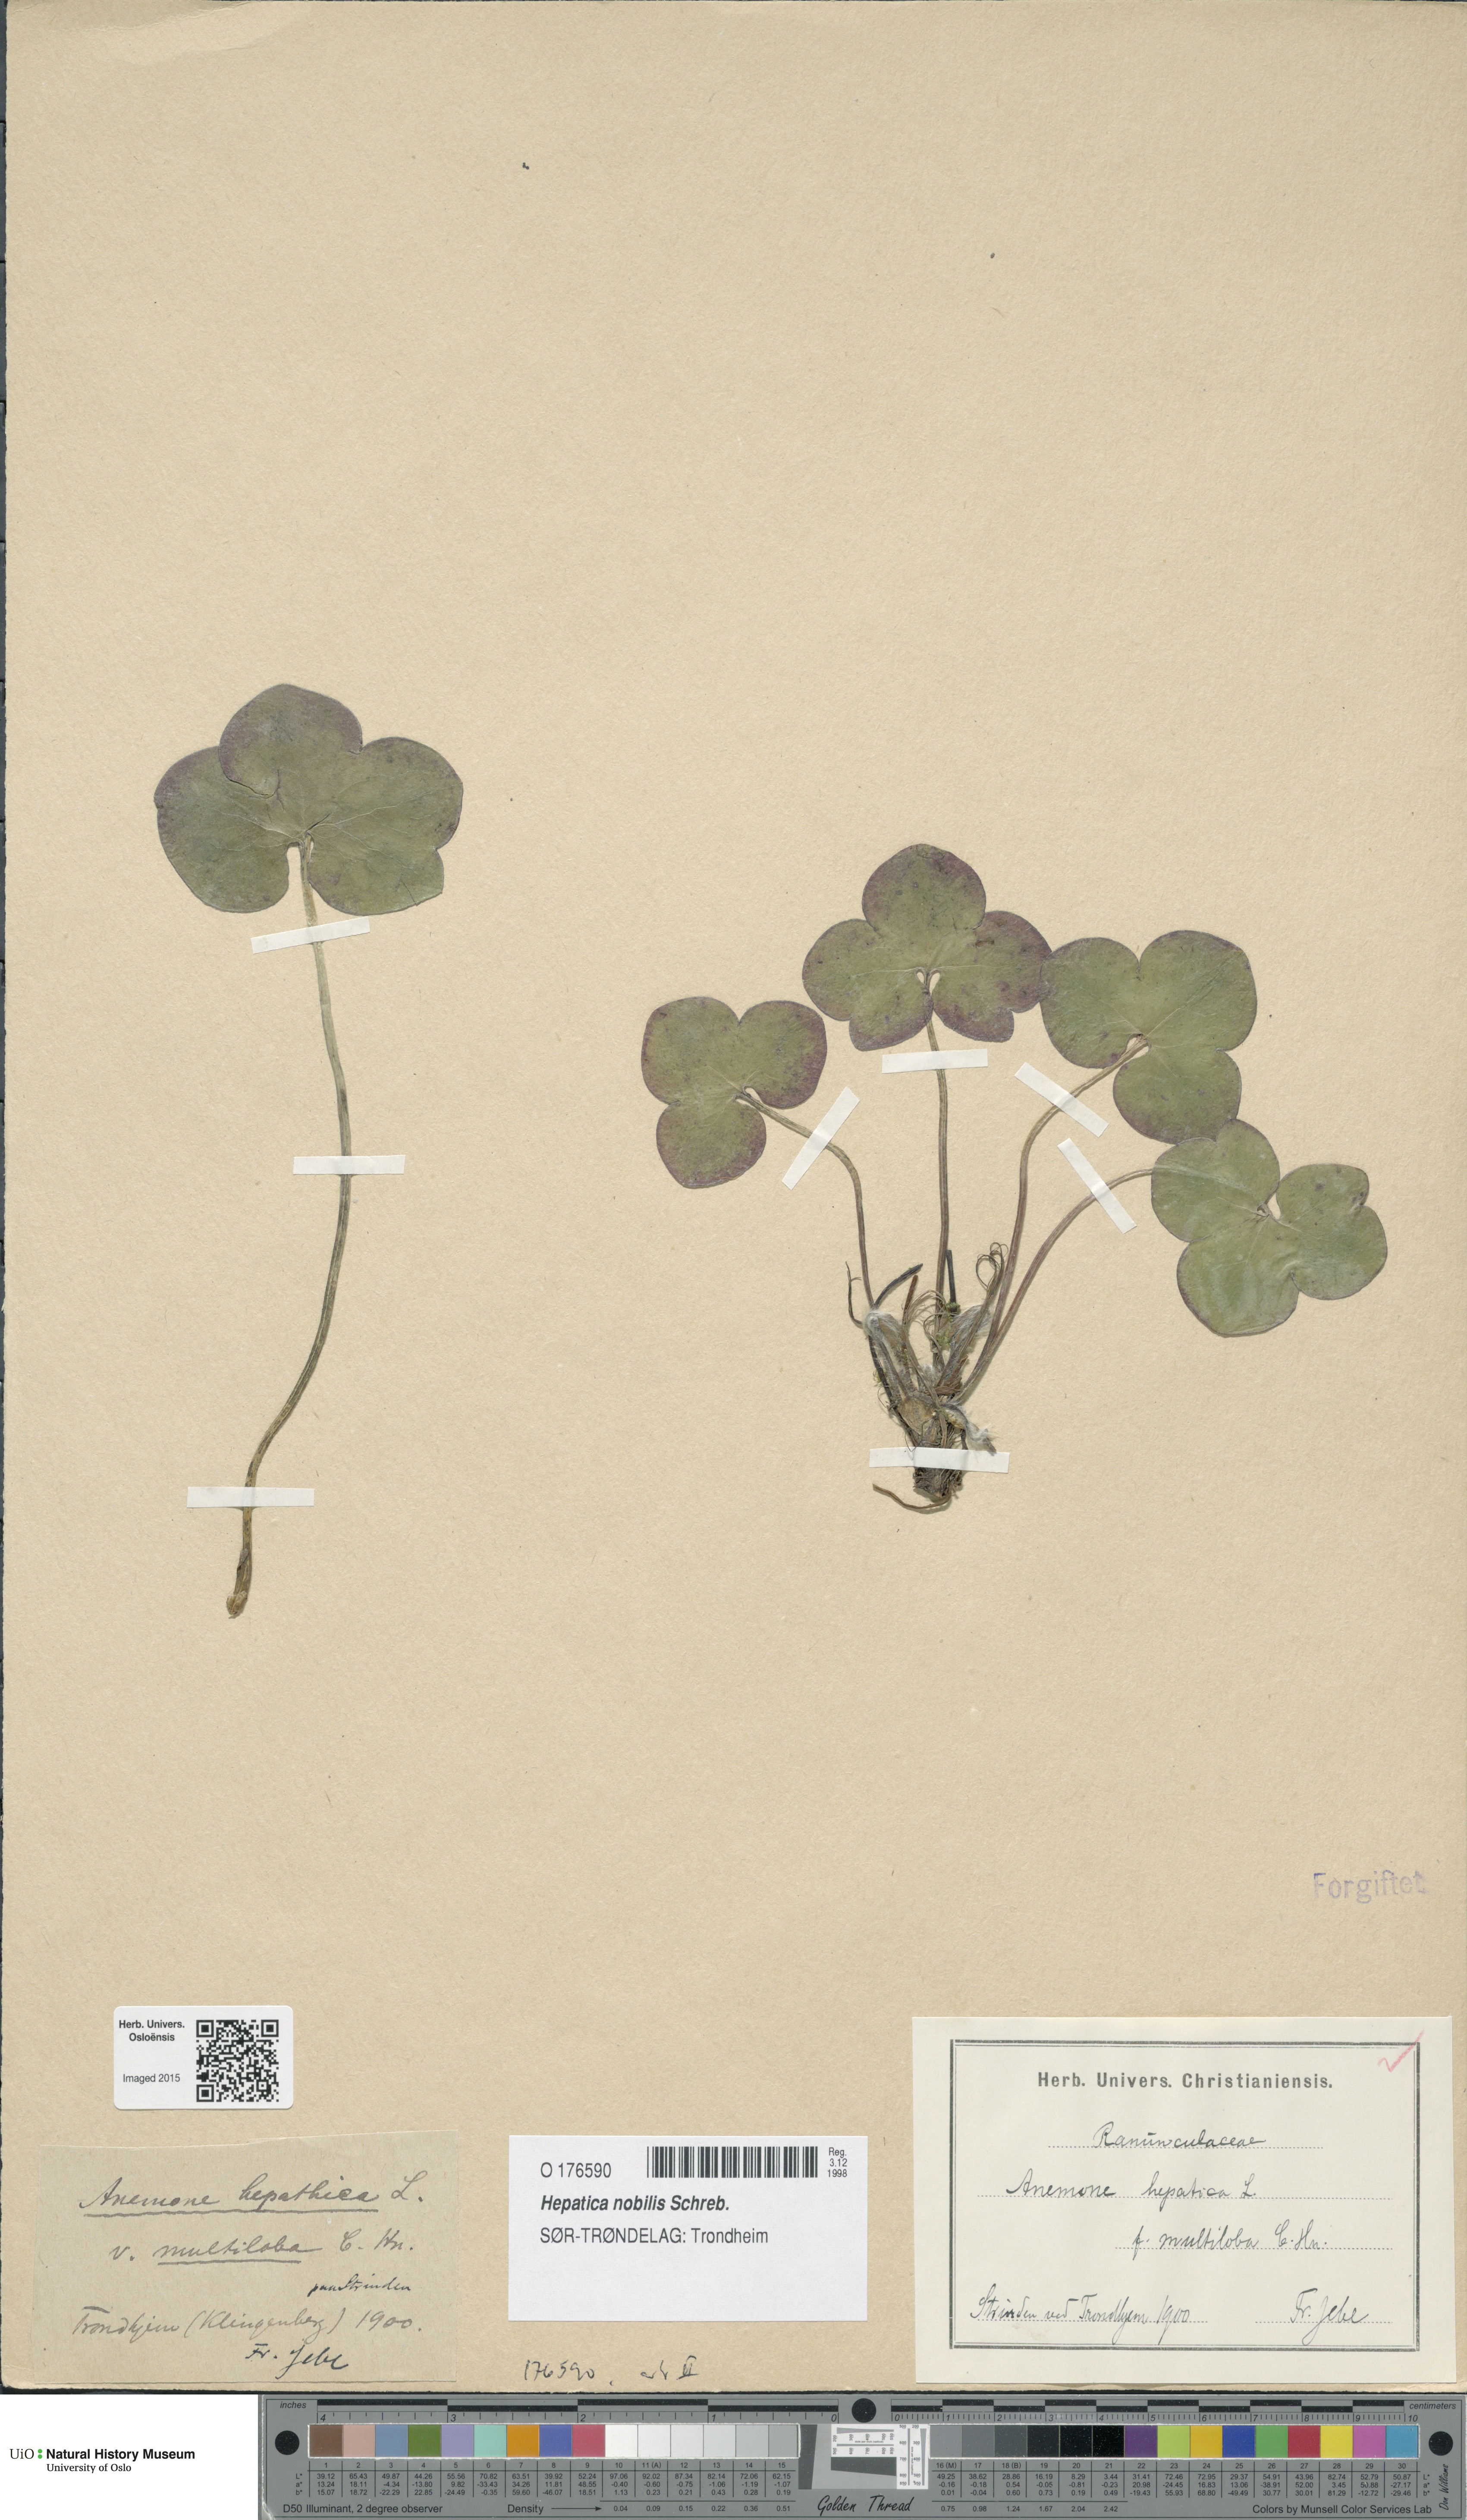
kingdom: Plantae
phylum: Tracheophyta
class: Magnoliopsida
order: Ranunculales
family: Ranunculaceae
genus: Hepatica
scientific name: Hepatica nobilis
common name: Liverleaf
